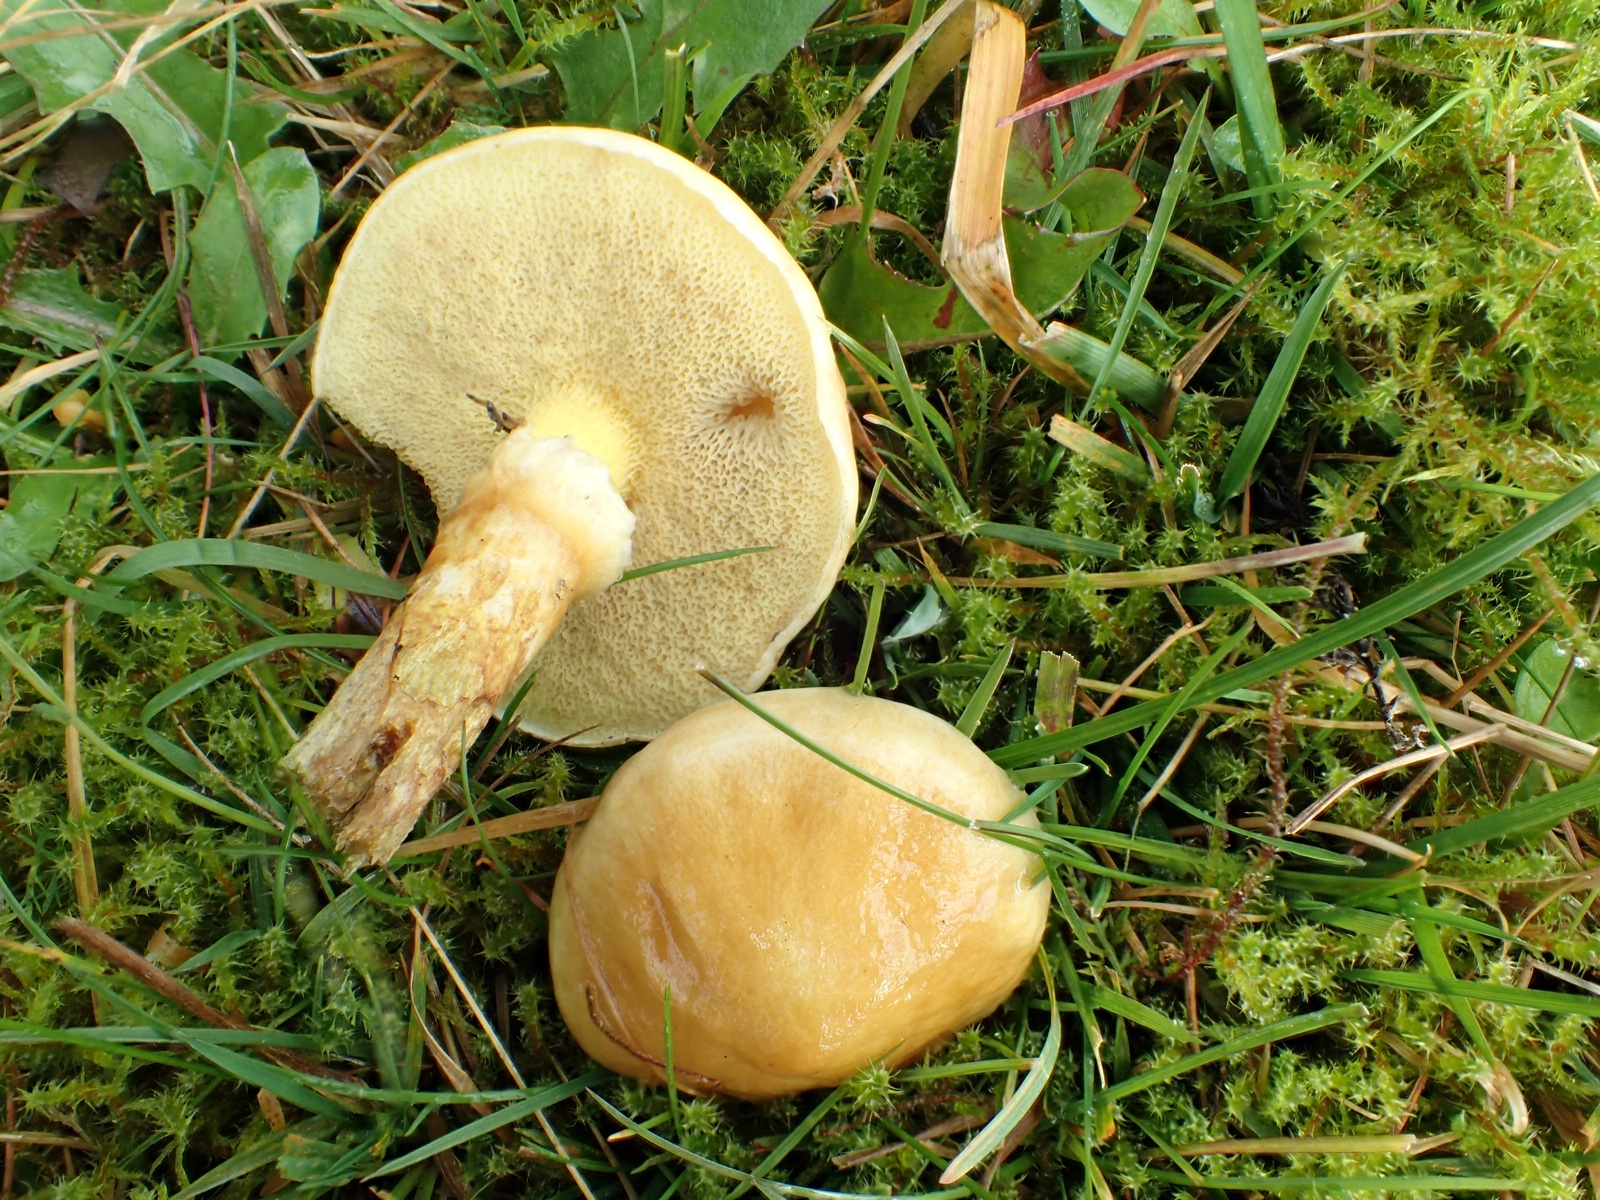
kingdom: Fungi
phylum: Basidiomycota
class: Agaricomycetes
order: Boletales
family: Suillaceae
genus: Suillus
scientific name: Suillus grevillei
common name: lærke-slimrørhat
